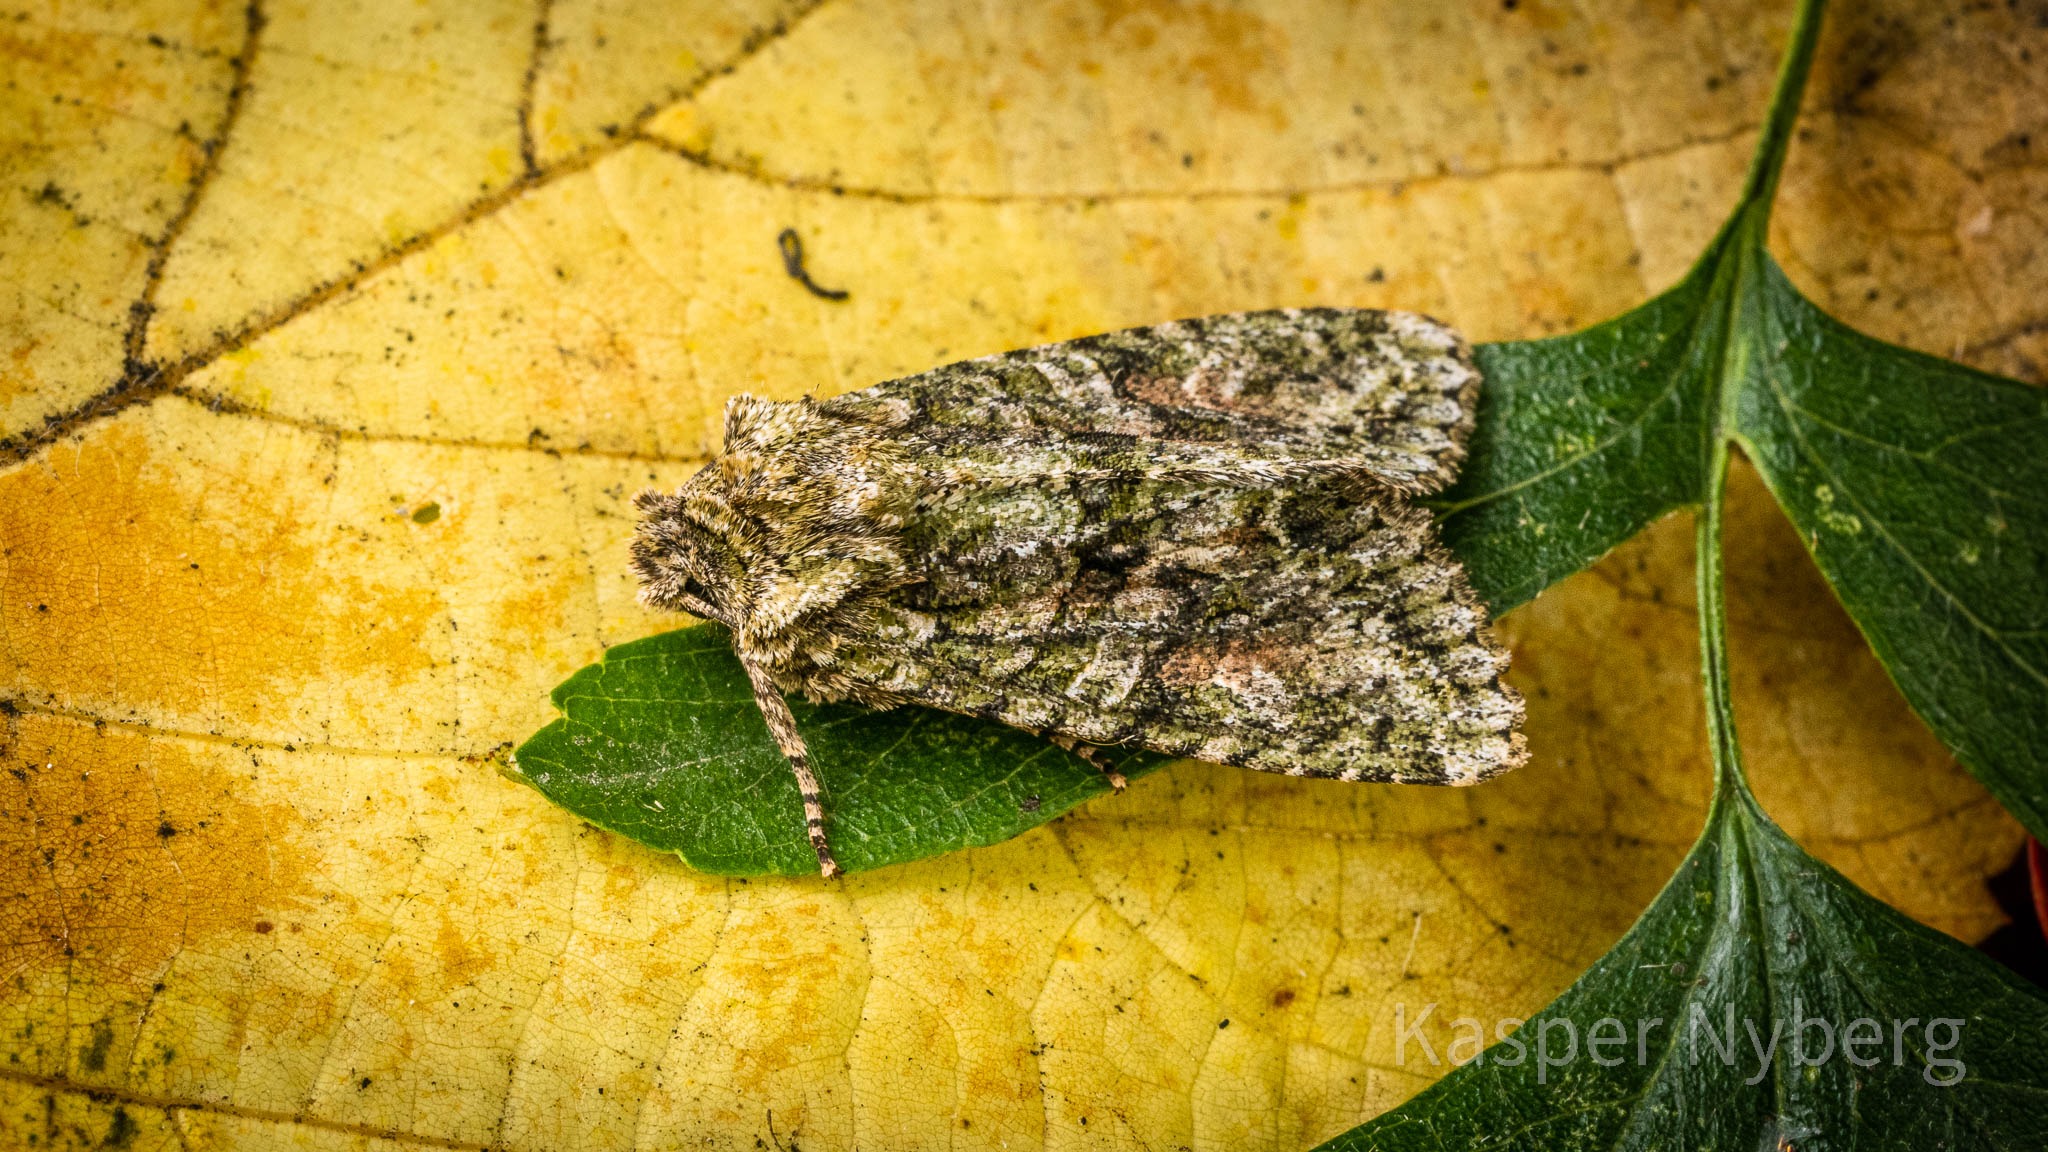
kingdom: Animalia
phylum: Arthropoda
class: Insecta
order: Lepidoptera
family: Noctuidae
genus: Dryobotodes
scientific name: Dryobotodes eremita
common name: Eremitugle
